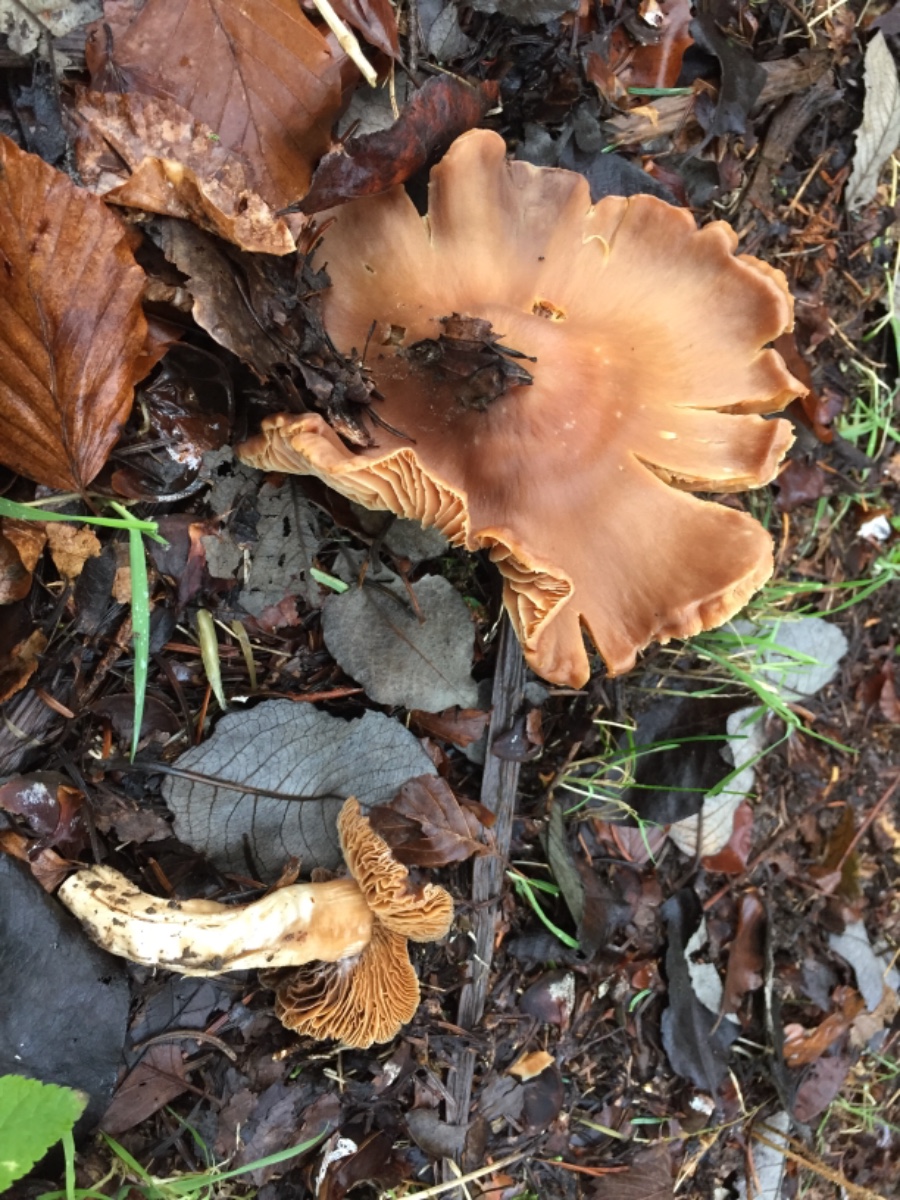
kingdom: Fungi
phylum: Basidiomycota
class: Agaricomycetes
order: Agaricales
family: Cortinariaceae
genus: Cortinarius
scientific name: Cortinarius
